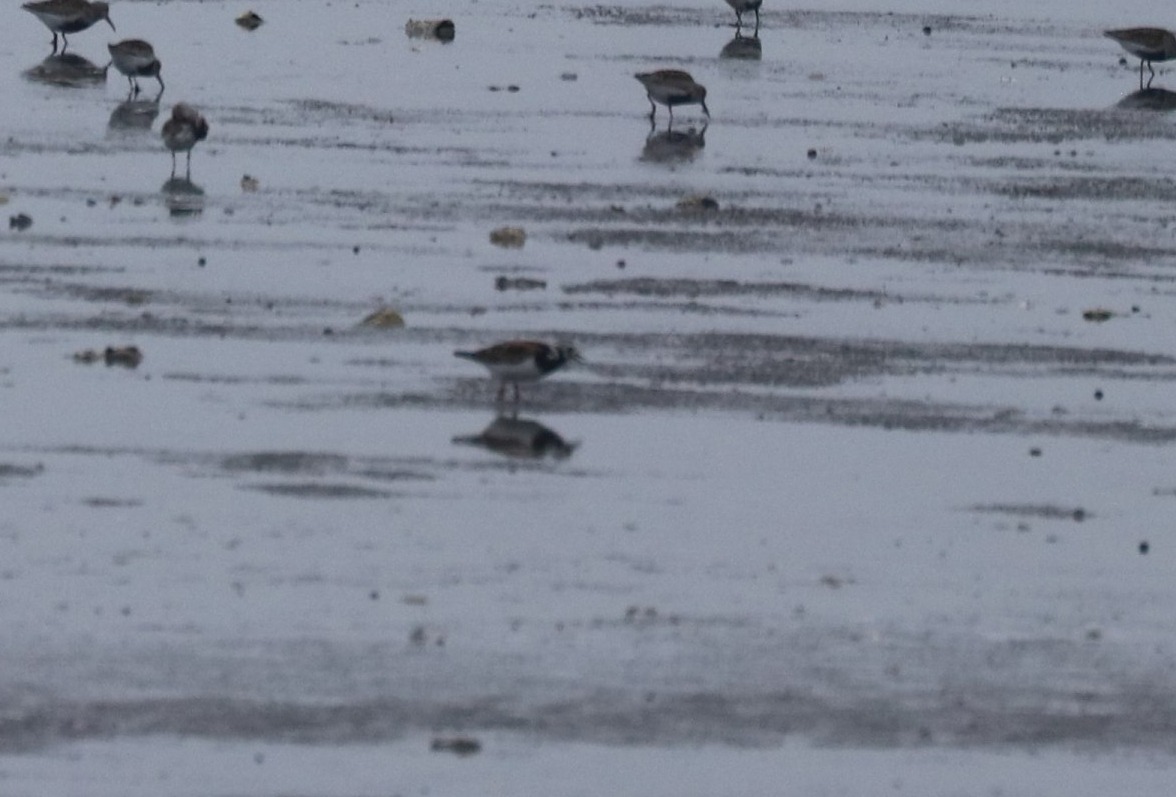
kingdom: Animalia
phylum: Chordata
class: Aves
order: Charadriiformes
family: Scolopacidae
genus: Arenaria
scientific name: Arenaria interpres
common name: Stenvender
